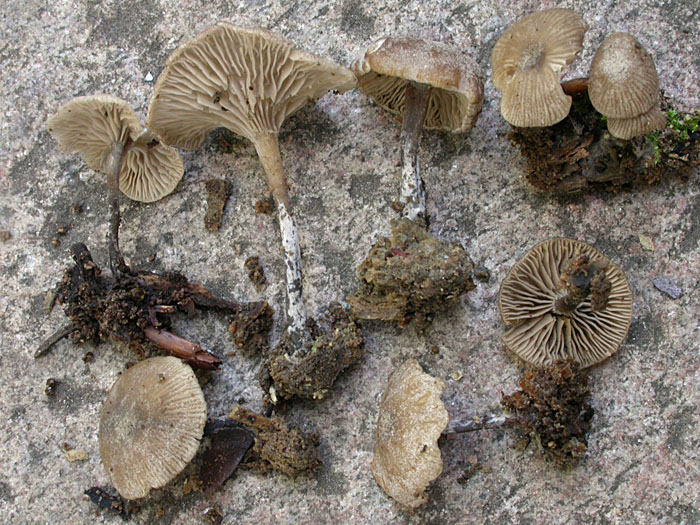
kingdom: Fungi
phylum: Basidiomycota
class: Agaricomycetes
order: Agaricales
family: Tricholomataceae
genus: Omphalina
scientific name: Omphalina microsperma
